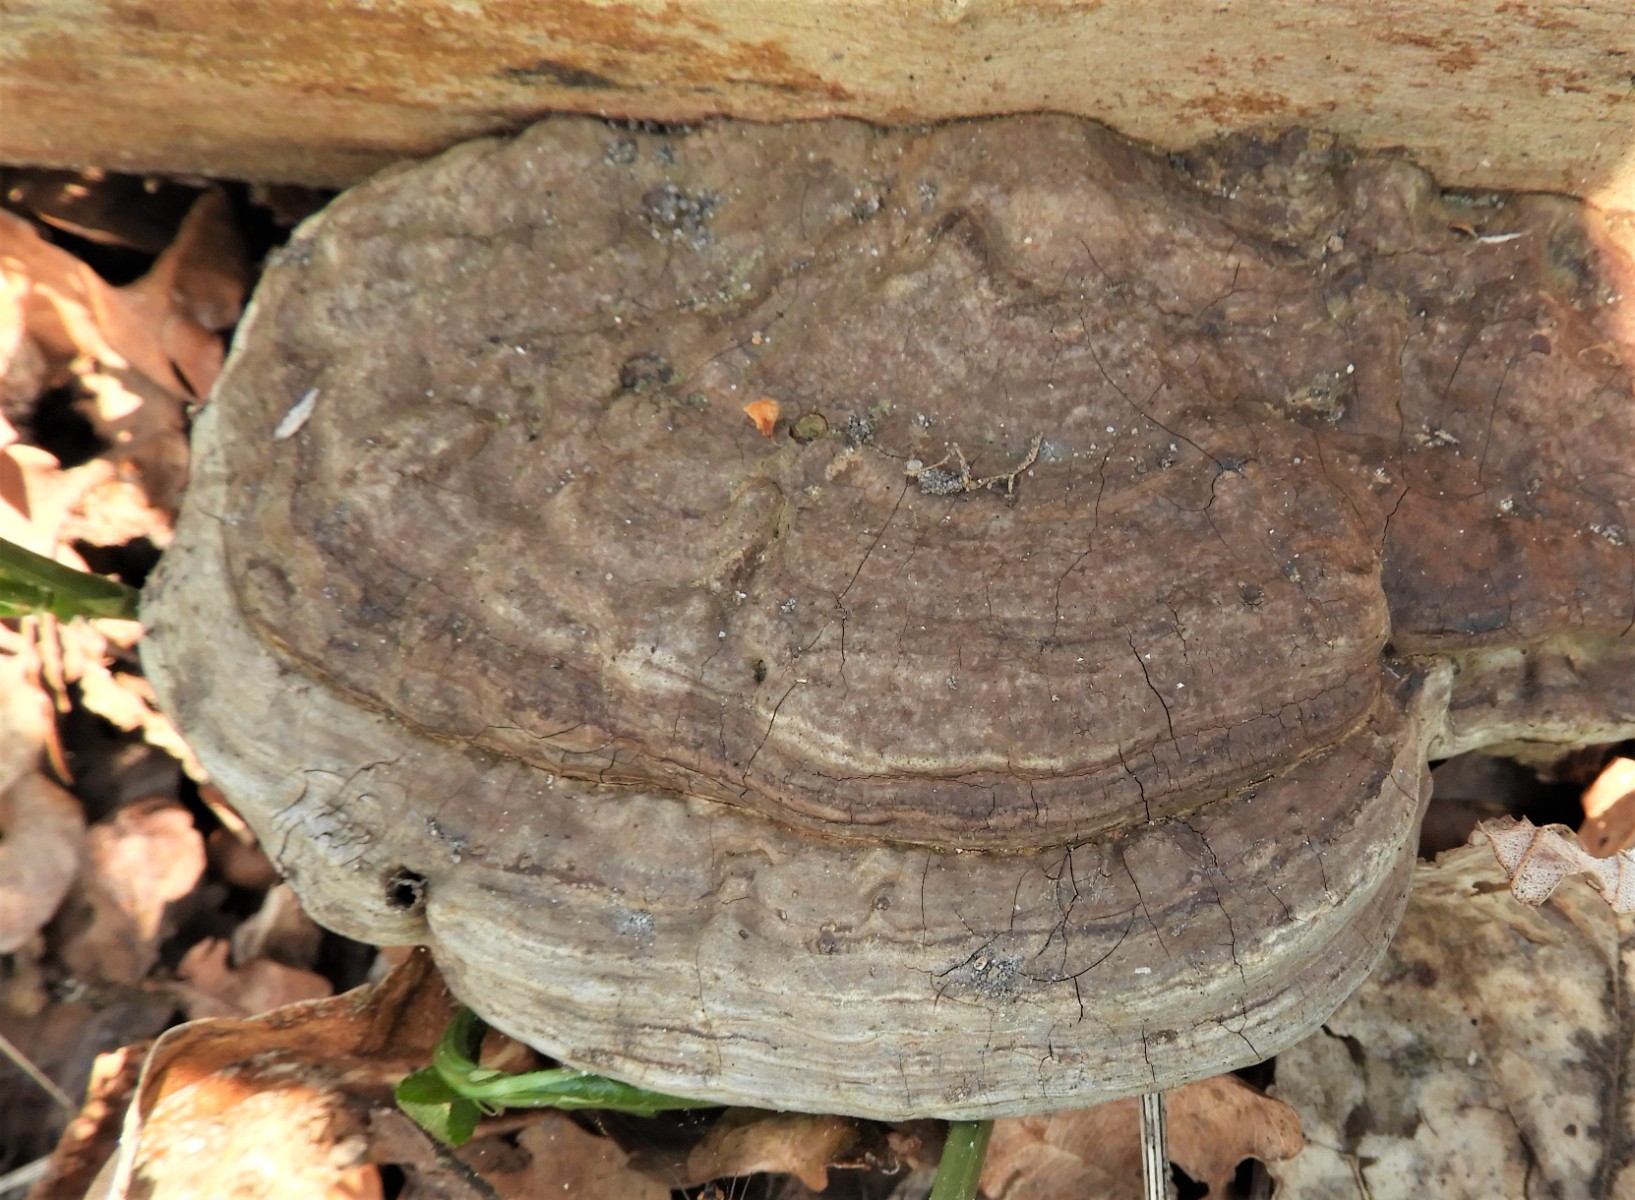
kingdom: Fungi
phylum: Basidiomycota
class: Agaricomycetes
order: Polyporales
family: Polyporaceae
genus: Ganoderma
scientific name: Ganoderma applanatum
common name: flad lakporesvamp
